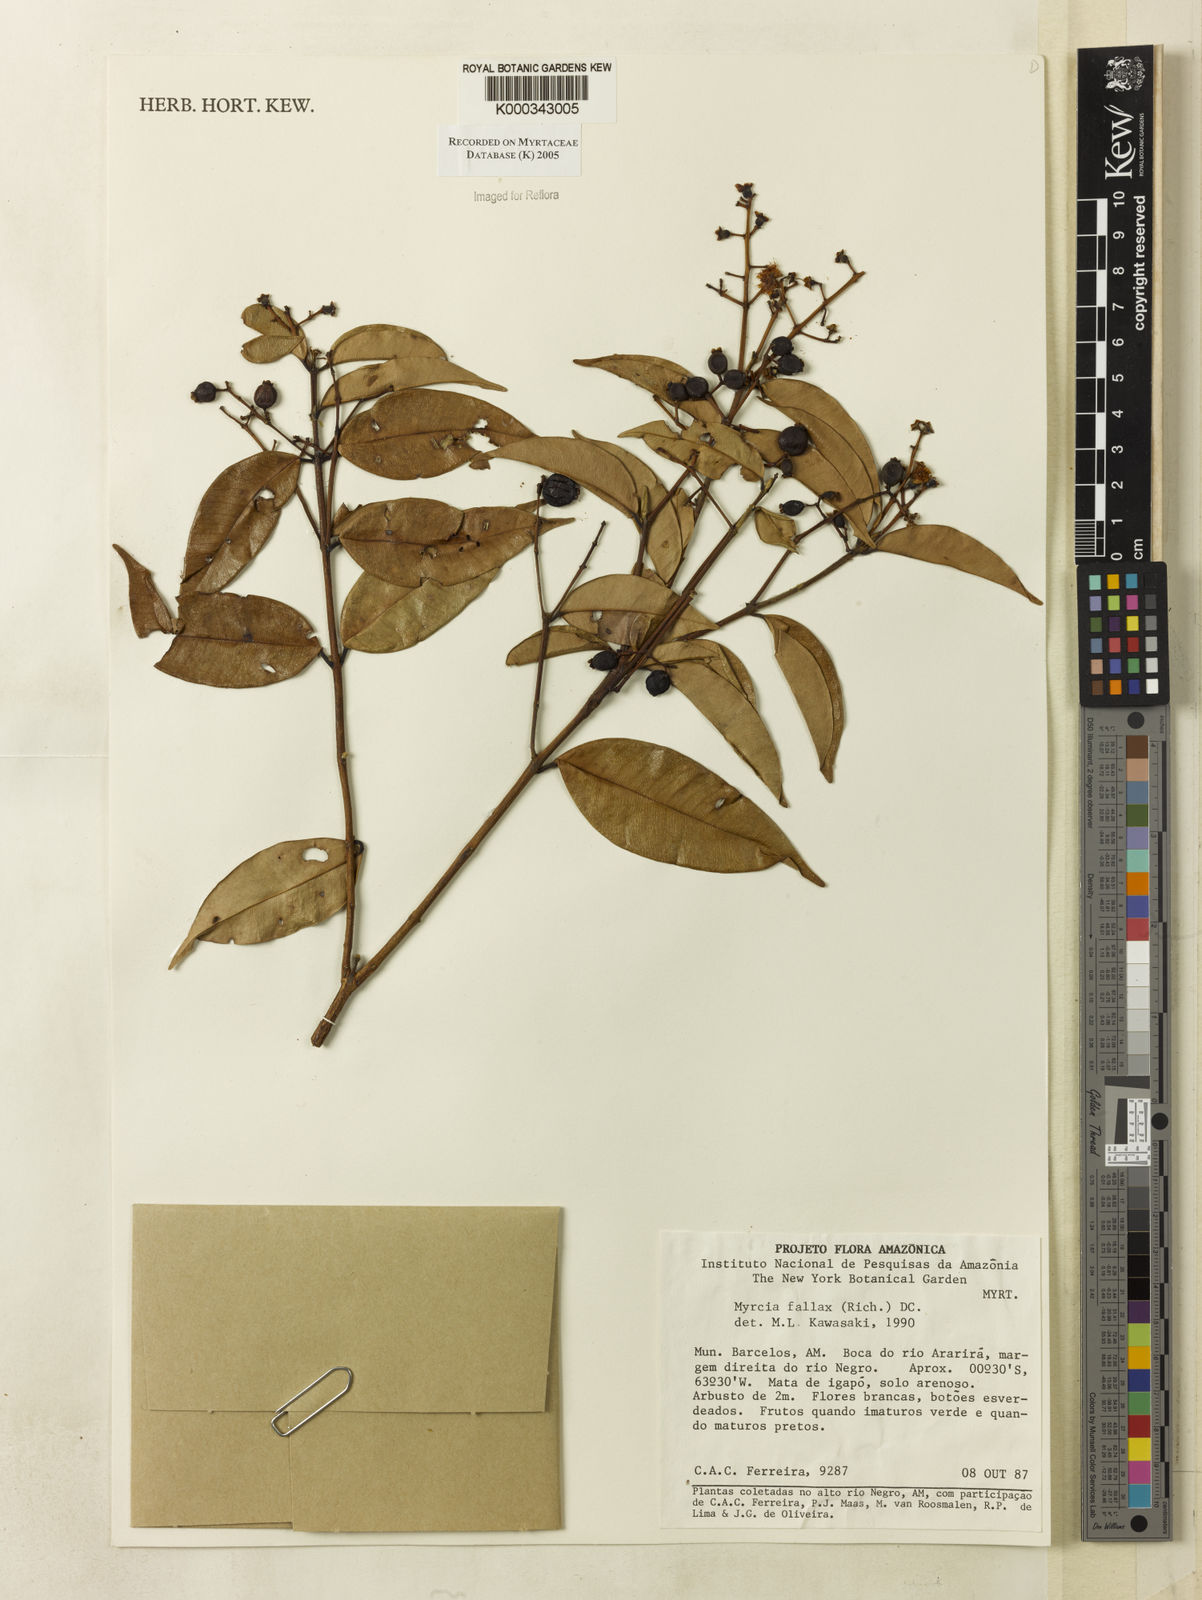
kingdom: Plantae
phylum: Tracheophyta
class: Magnoliopsida
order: Myrtales
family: Myrtaceae
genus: Myrcia
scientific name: Myrcia splendens
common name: Surinam cherry
